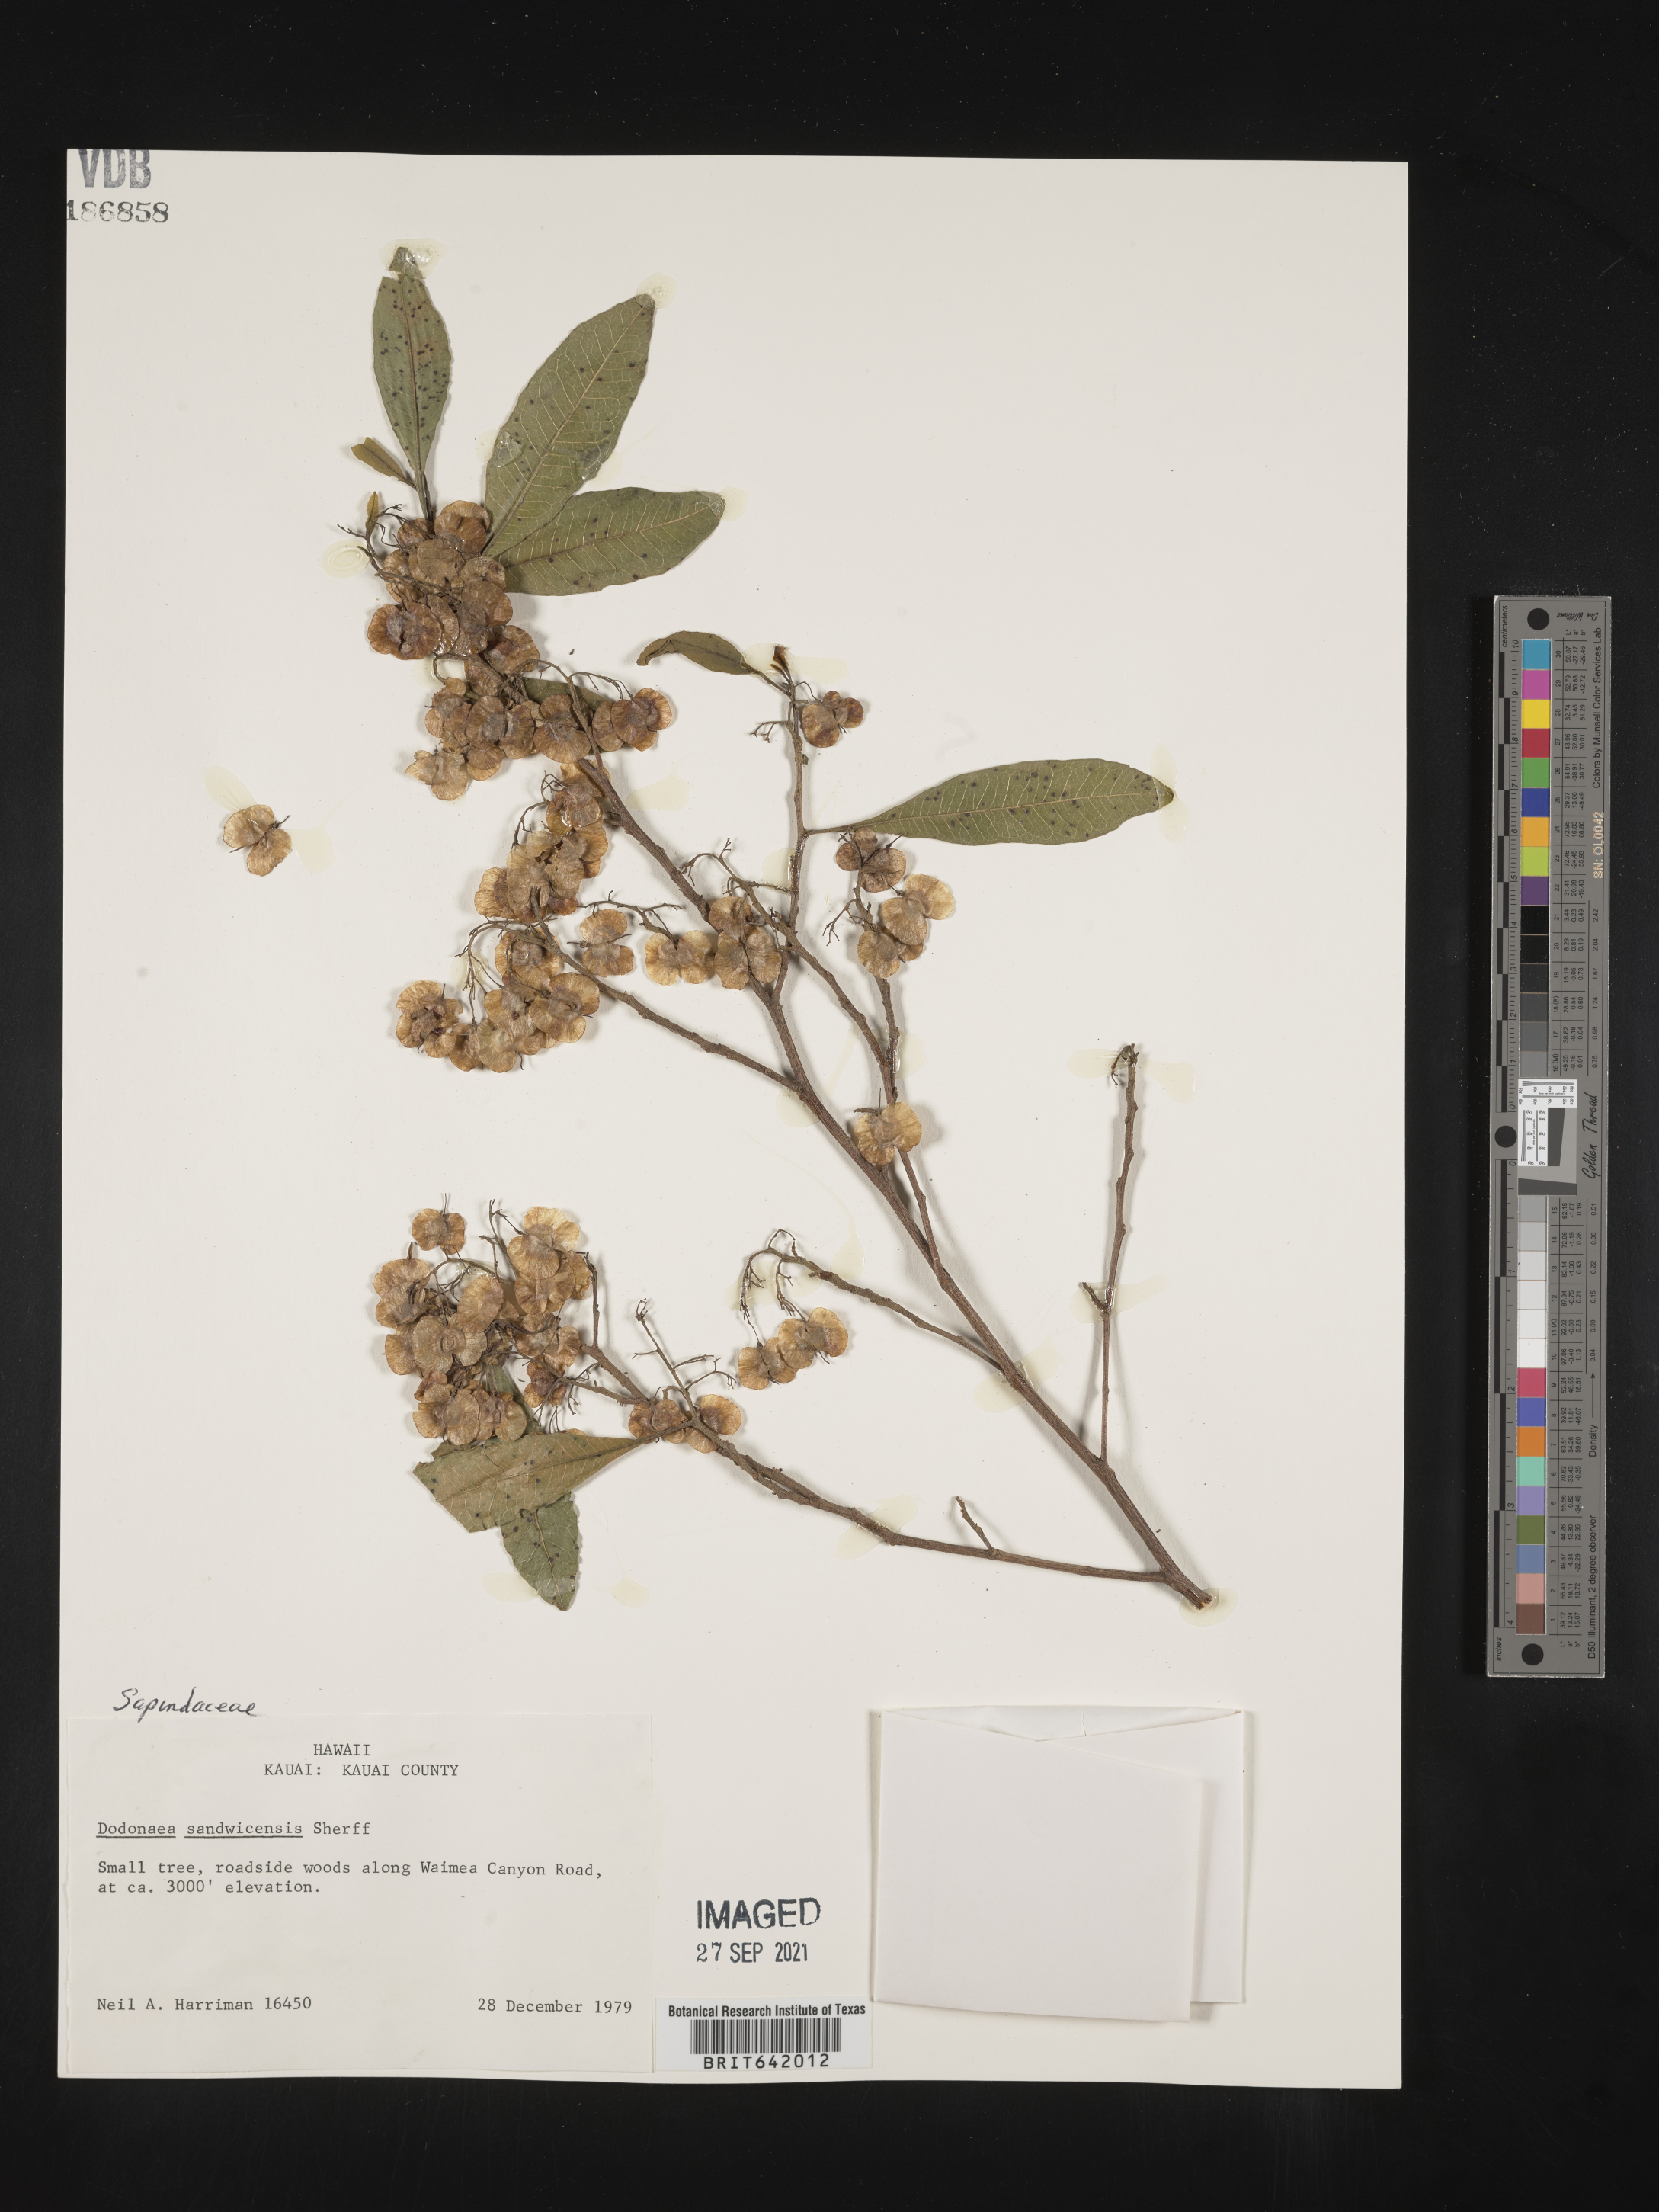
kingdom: Plantae
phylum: Tracheophyta
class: Magnoliopsida
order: Sapindales
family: Sapindaceae
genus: Dodonaea
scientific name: Dodonaea
